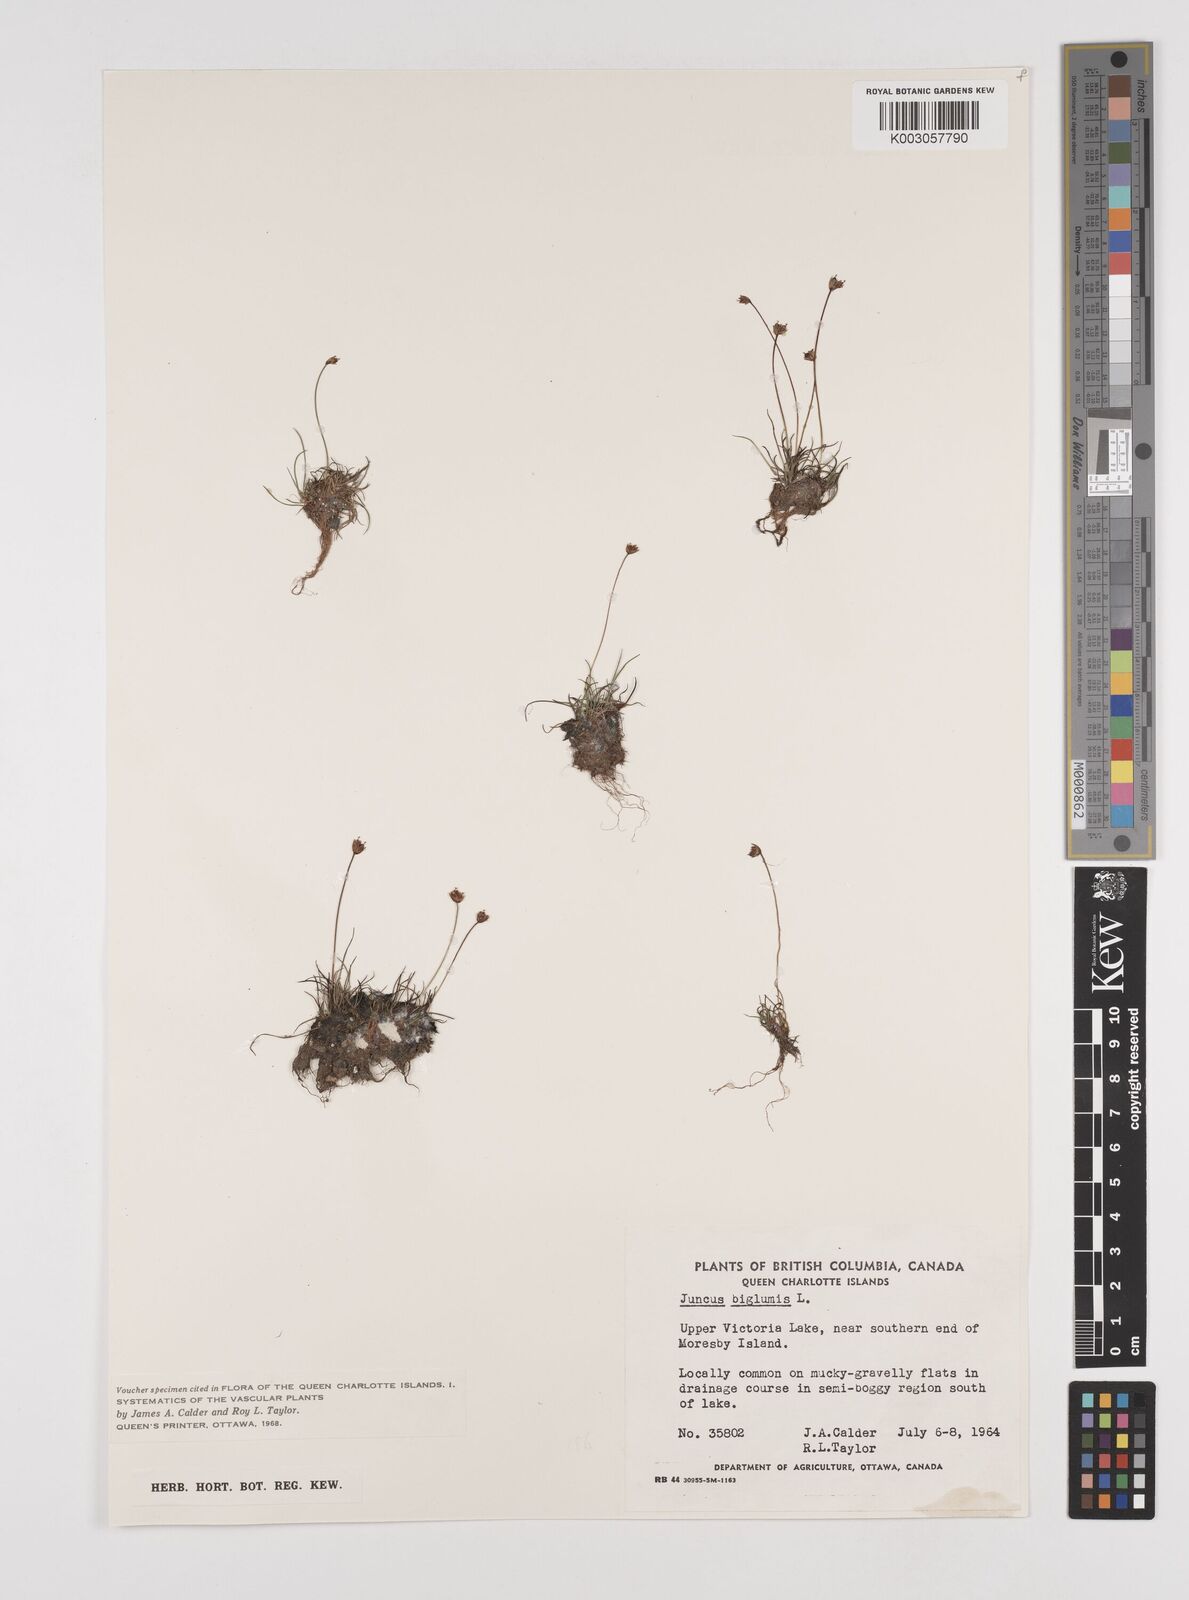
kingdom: Plantae
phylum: Tracheophyta
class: Liliopsida
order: Poales
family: Juncaceae
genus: Juncus
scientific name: Juncus biglumis
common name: Two-flowered rush
